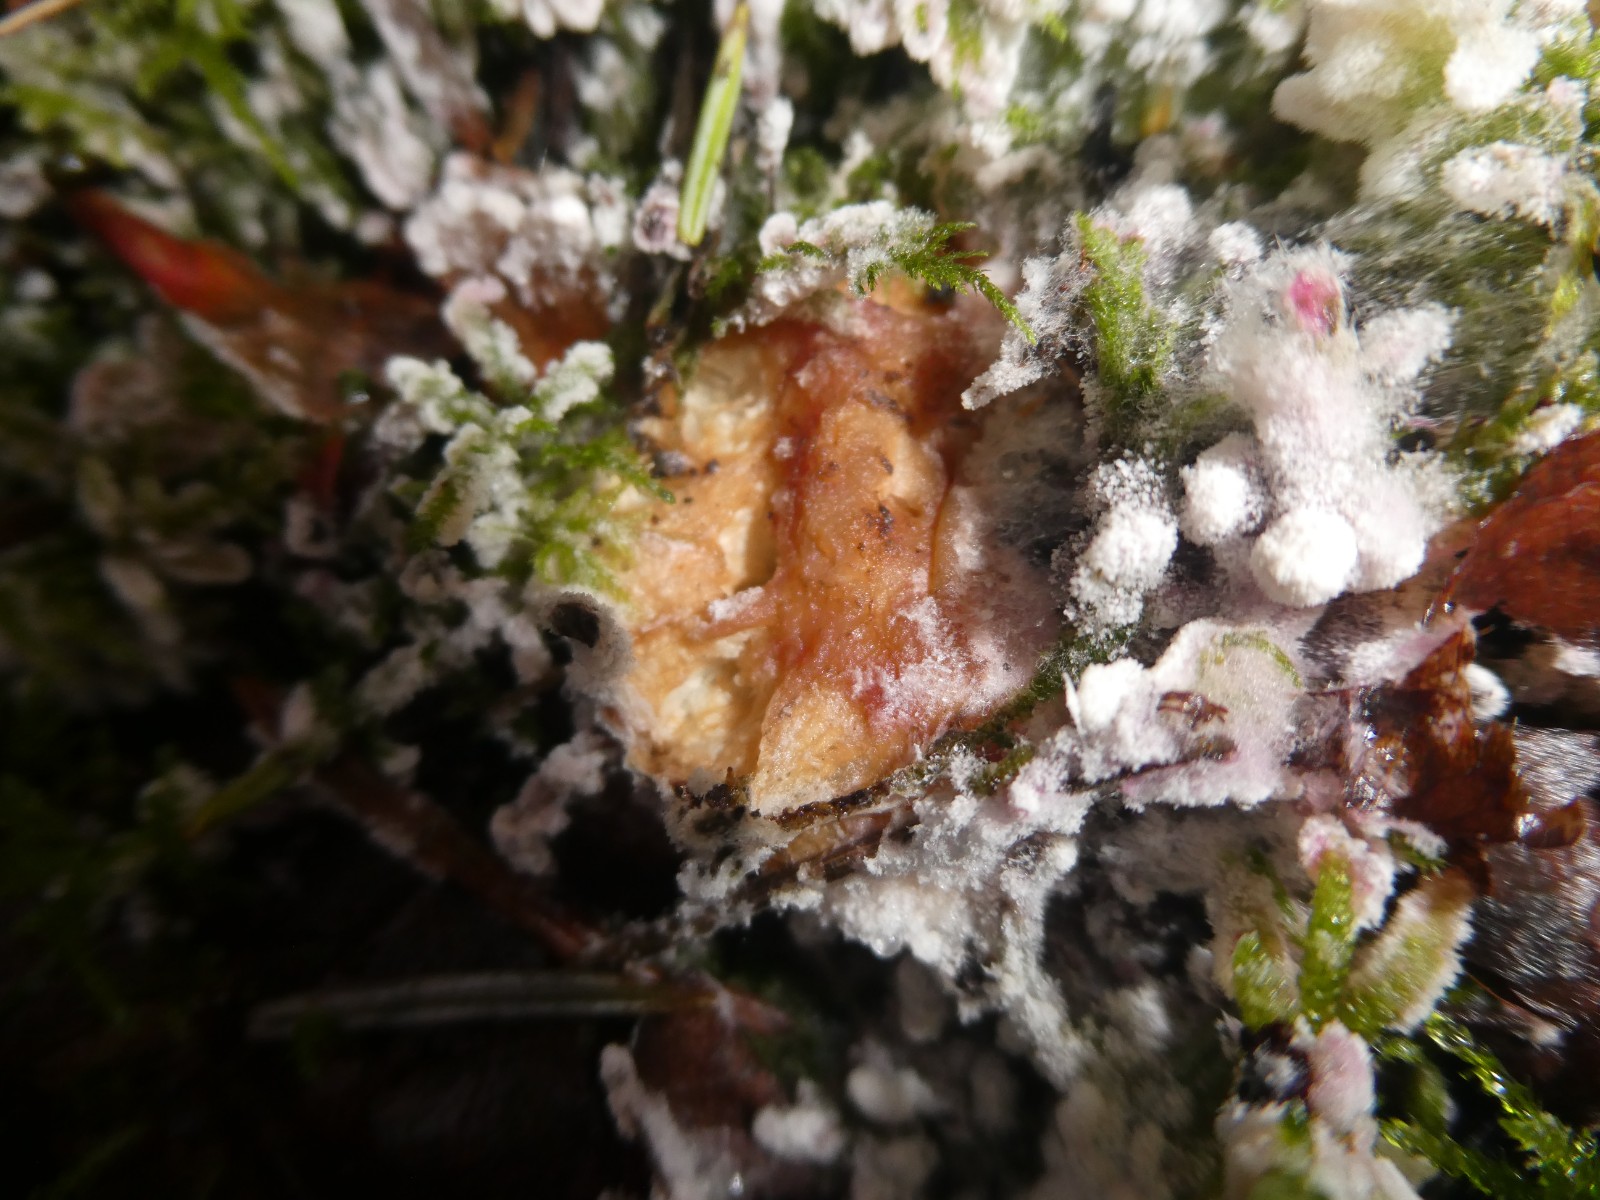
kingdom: Fungi
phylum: Ascomycota
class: Sordariomycetes
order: Hypocreales
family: Hypocreaceae
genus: Hypomyces
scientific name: Hypomyces rosellus
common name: rosa snylteskorpe
